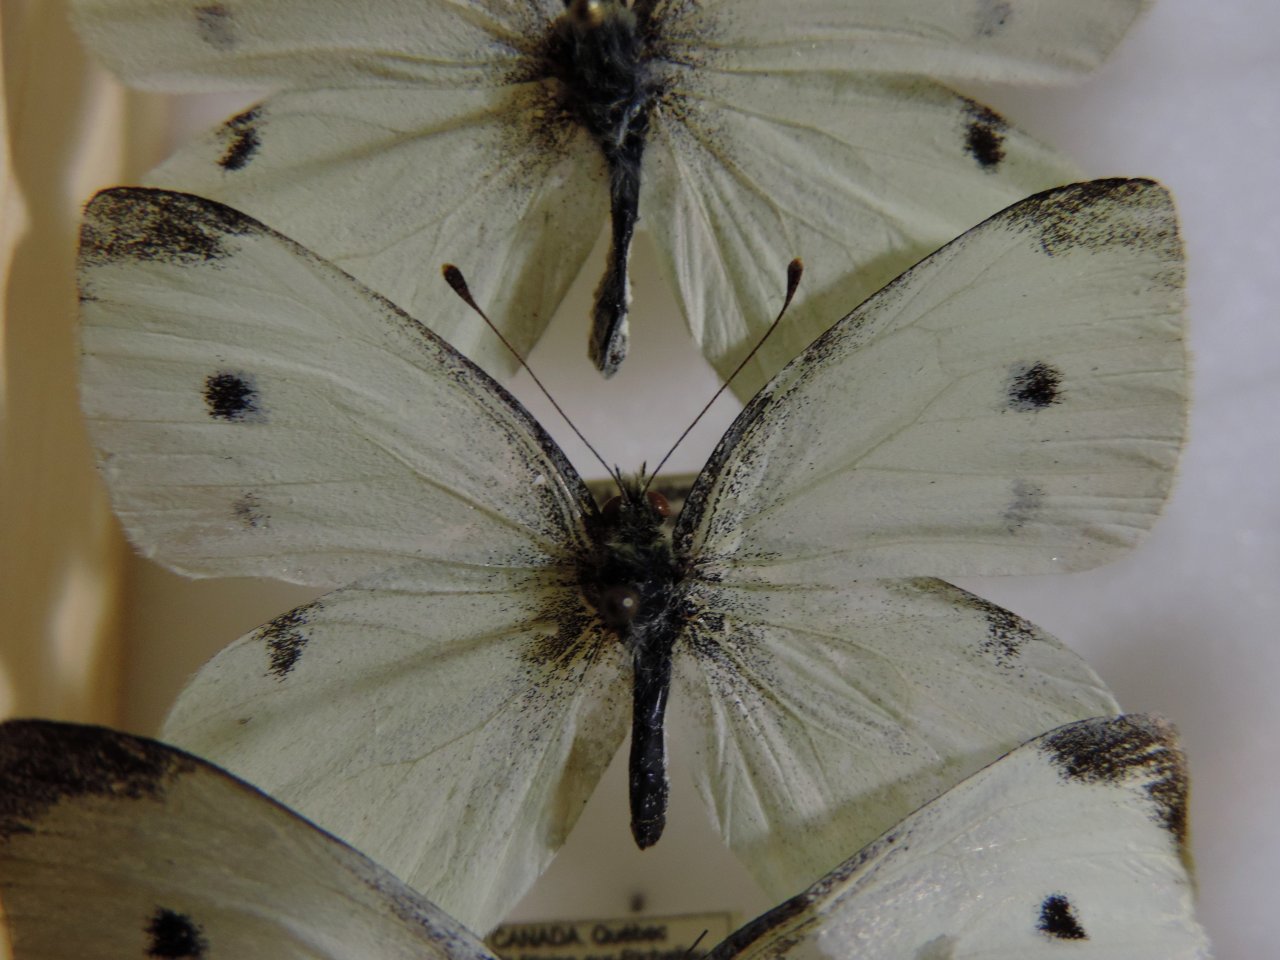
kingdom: Animalia
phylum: Arthropoda
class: Insecta
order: Lepidoptera
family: Pieridae
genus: Pieris
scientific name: Pieris rapae
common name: Cabbage White
